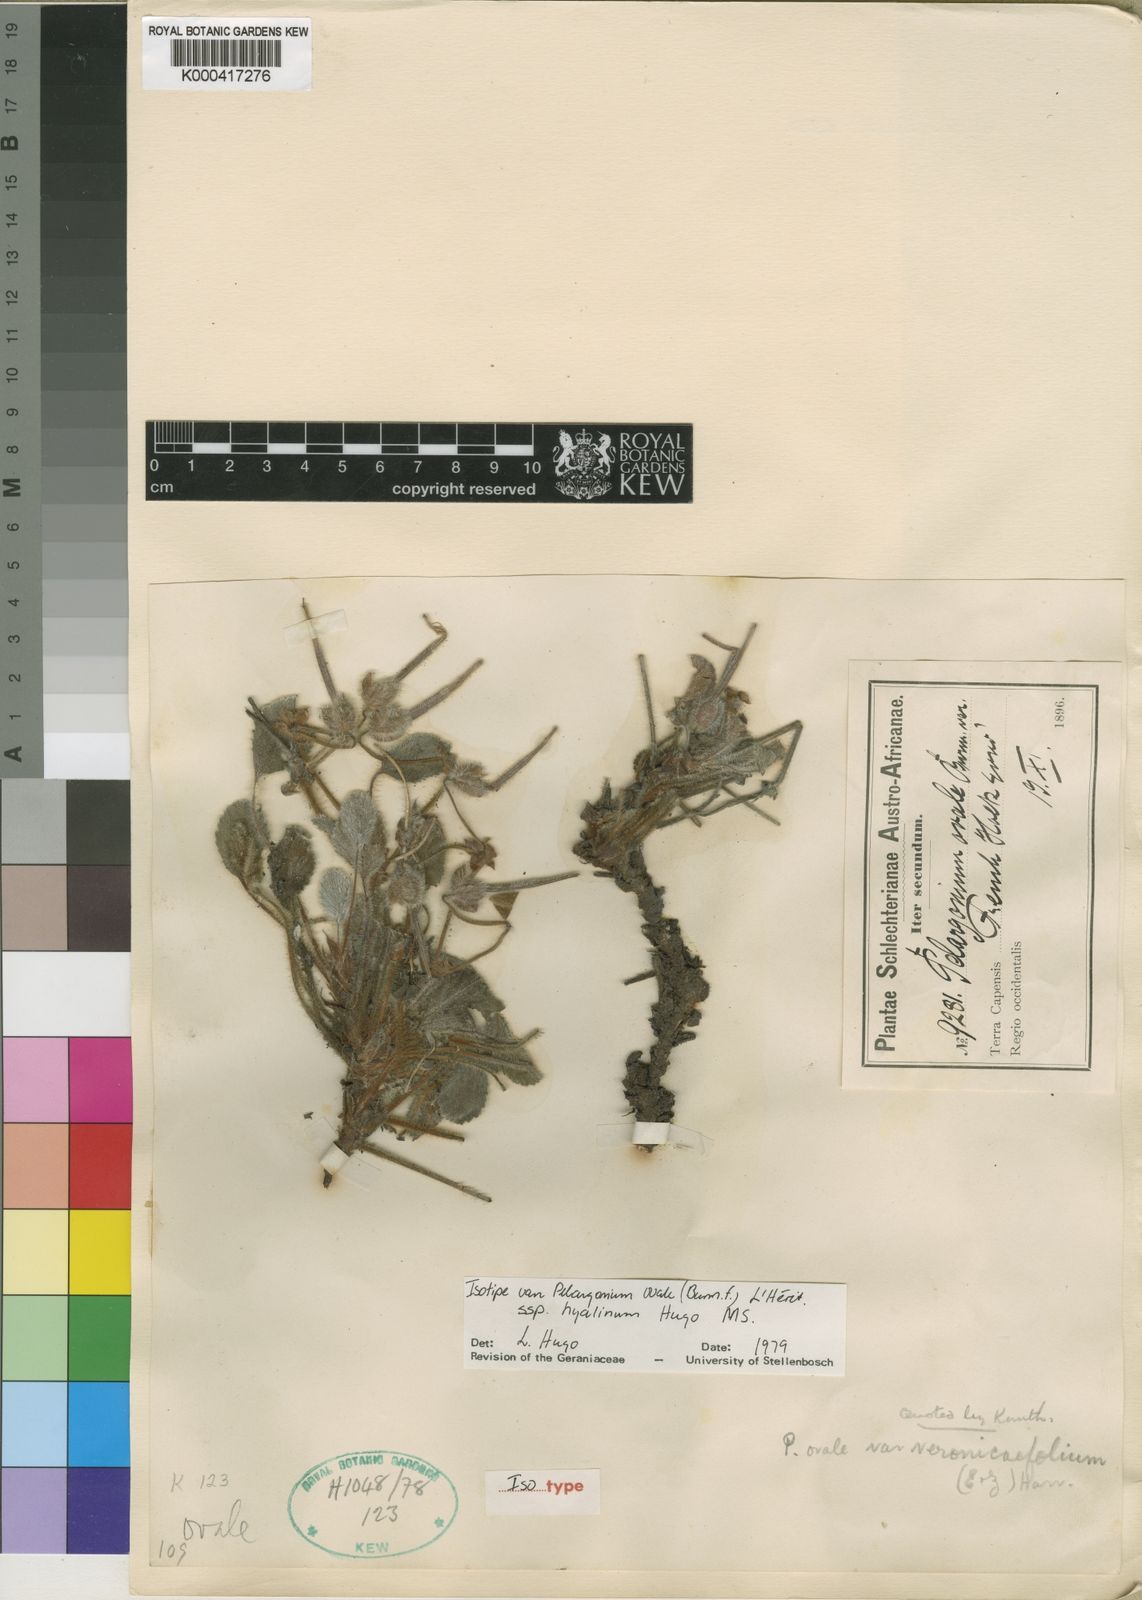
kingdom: Plantae
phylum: Tracheophyta
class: Magnoliopsida
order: Geraniales
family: Geraniaceae
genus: Pelargonium
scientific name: Pelargonium ovale
